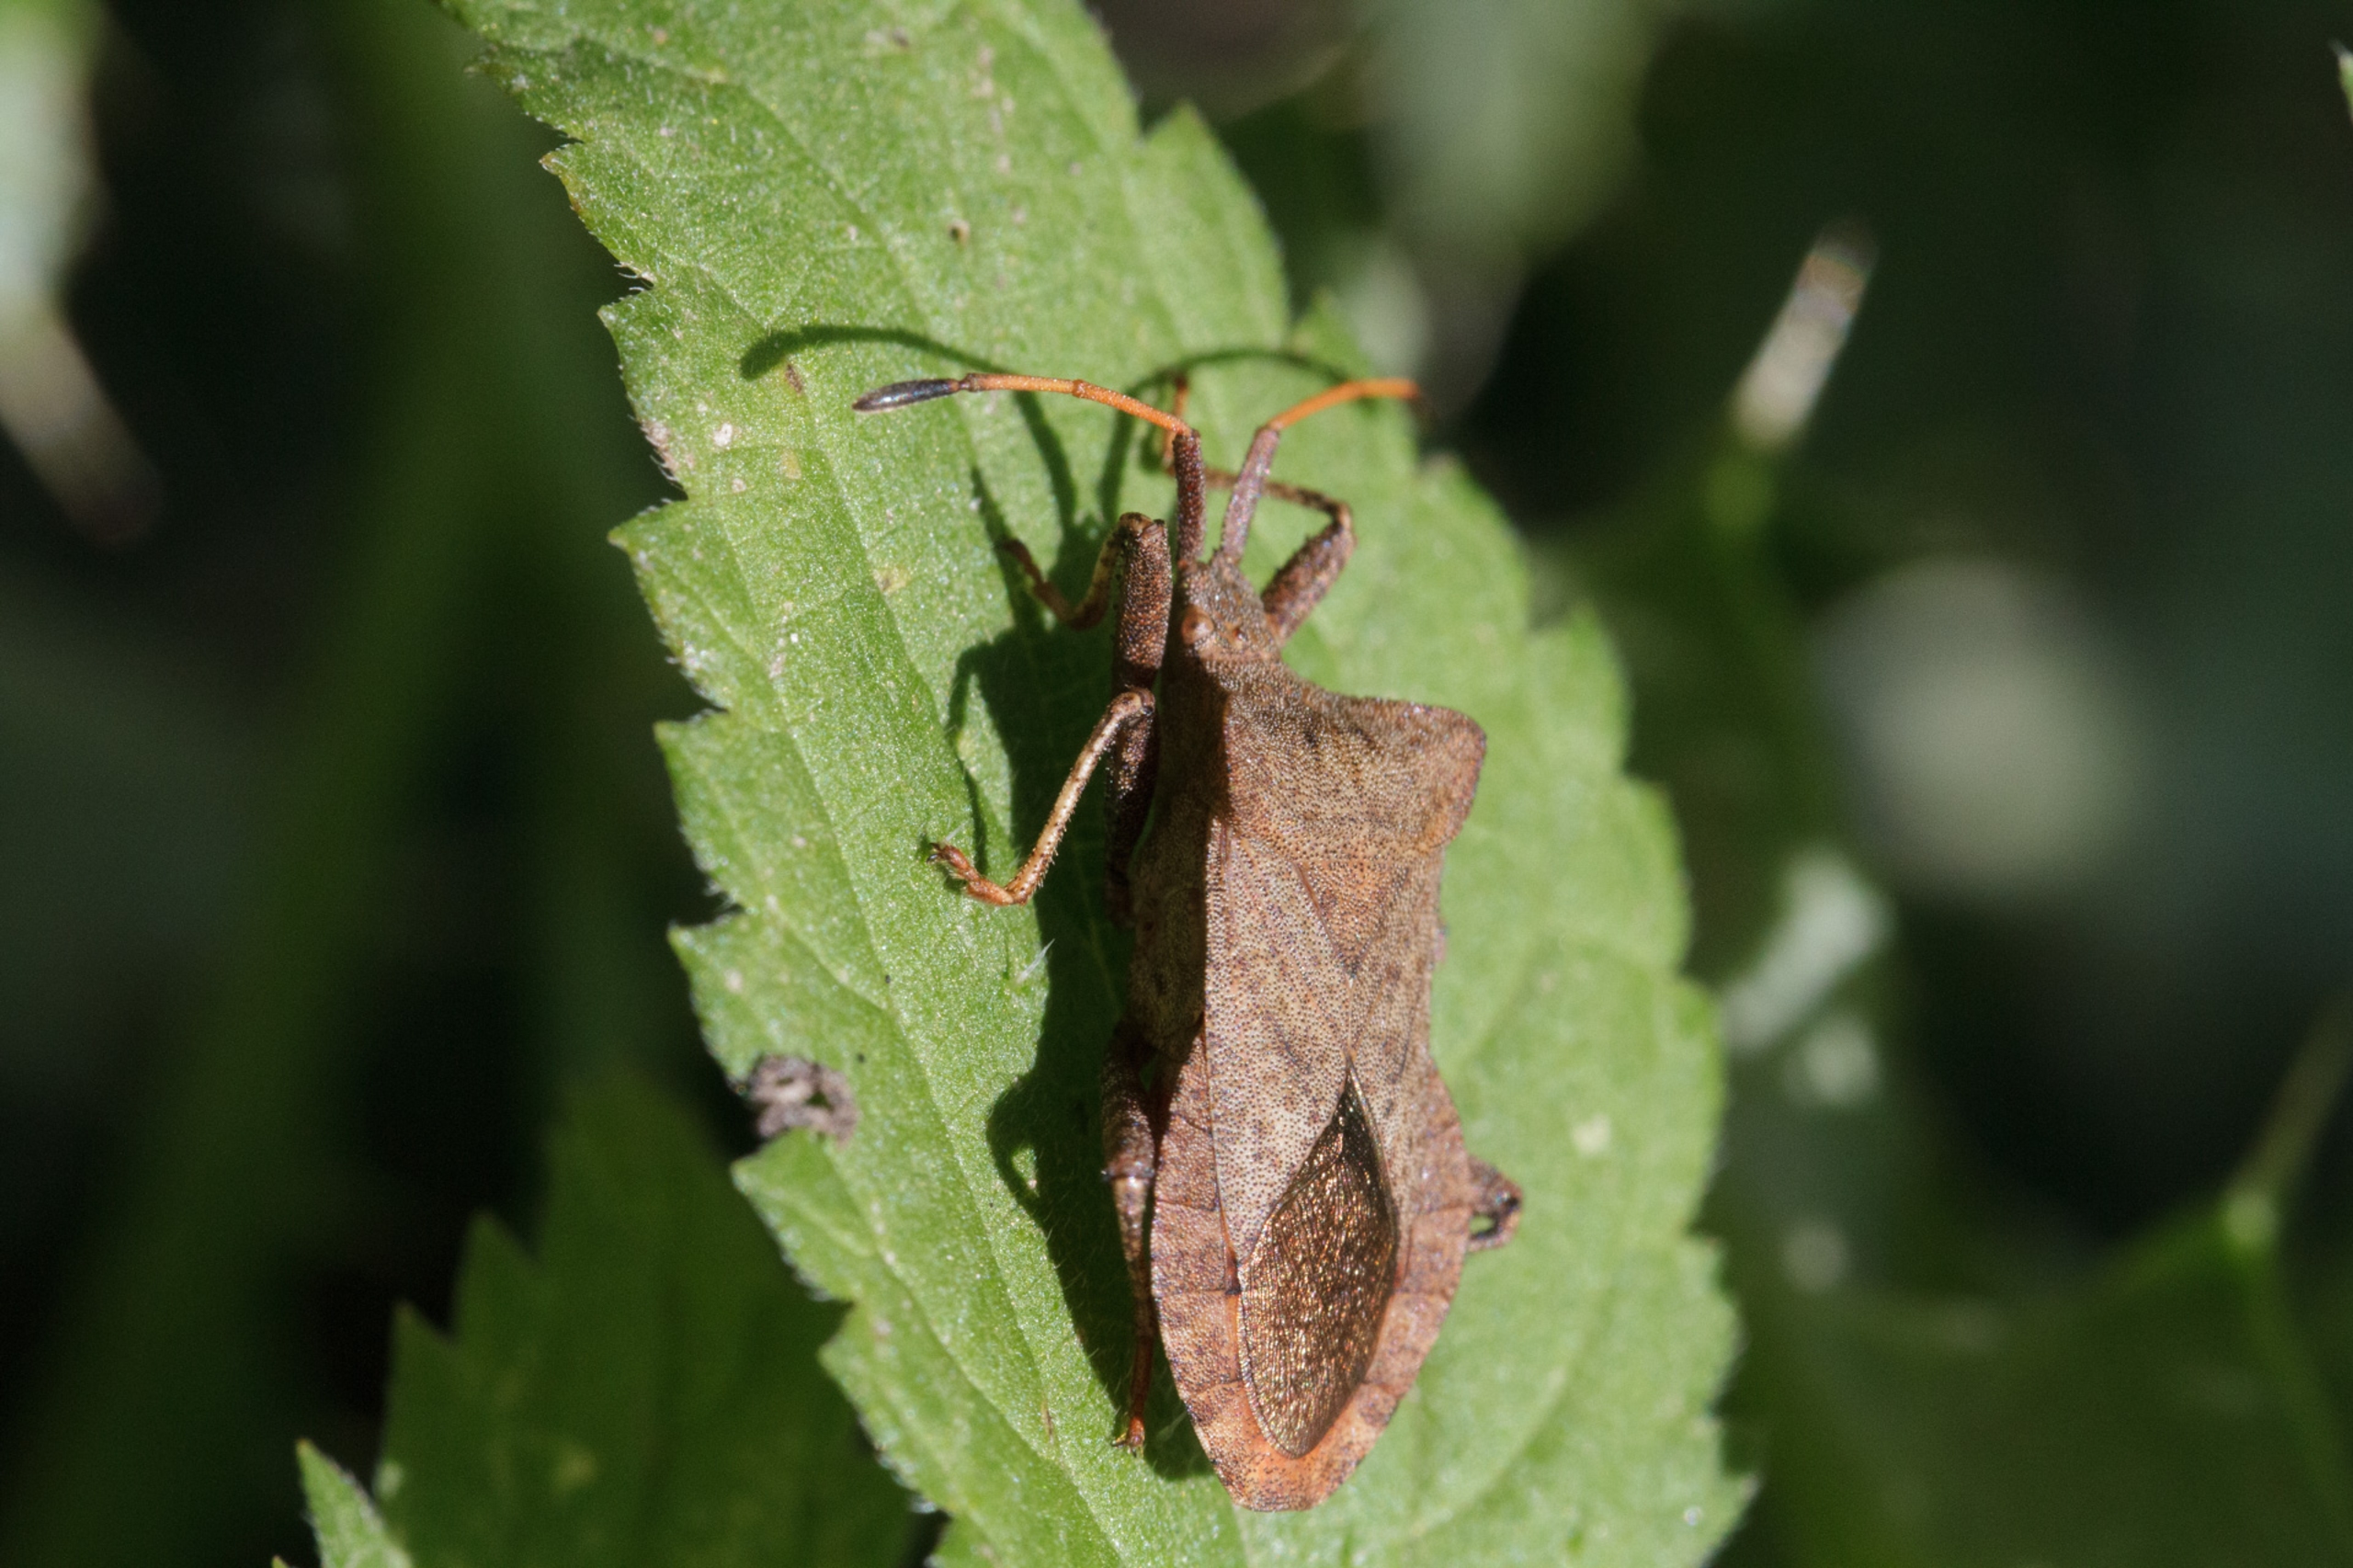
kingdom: Animalia
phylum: Arthropoda
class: Insecta
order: Hemiptera
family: Coreidae
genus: Coreus
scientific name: Coreus marginatus
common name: Skræppetæge
